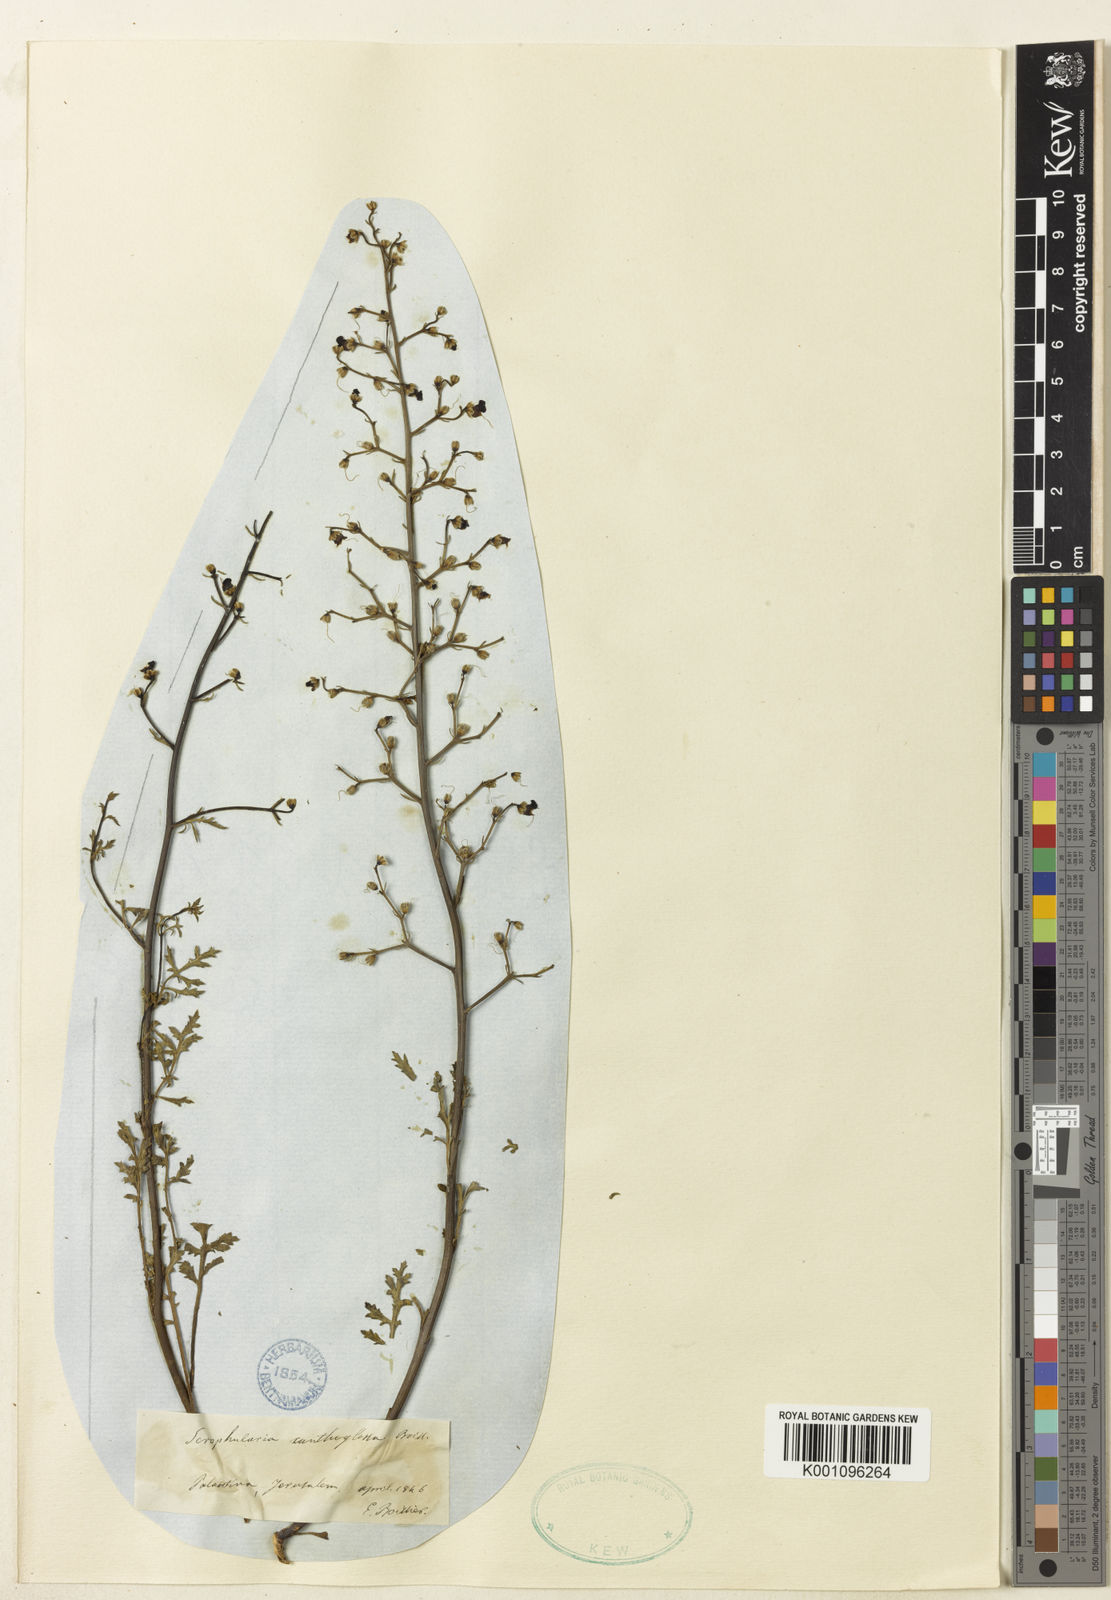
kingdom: Plantae
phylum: Tracheophyta
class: Magnoliopsida
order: Lamiales
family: Scrophulariaceae
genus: Scrophularia
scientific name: Scrophularia xanthoglossa
